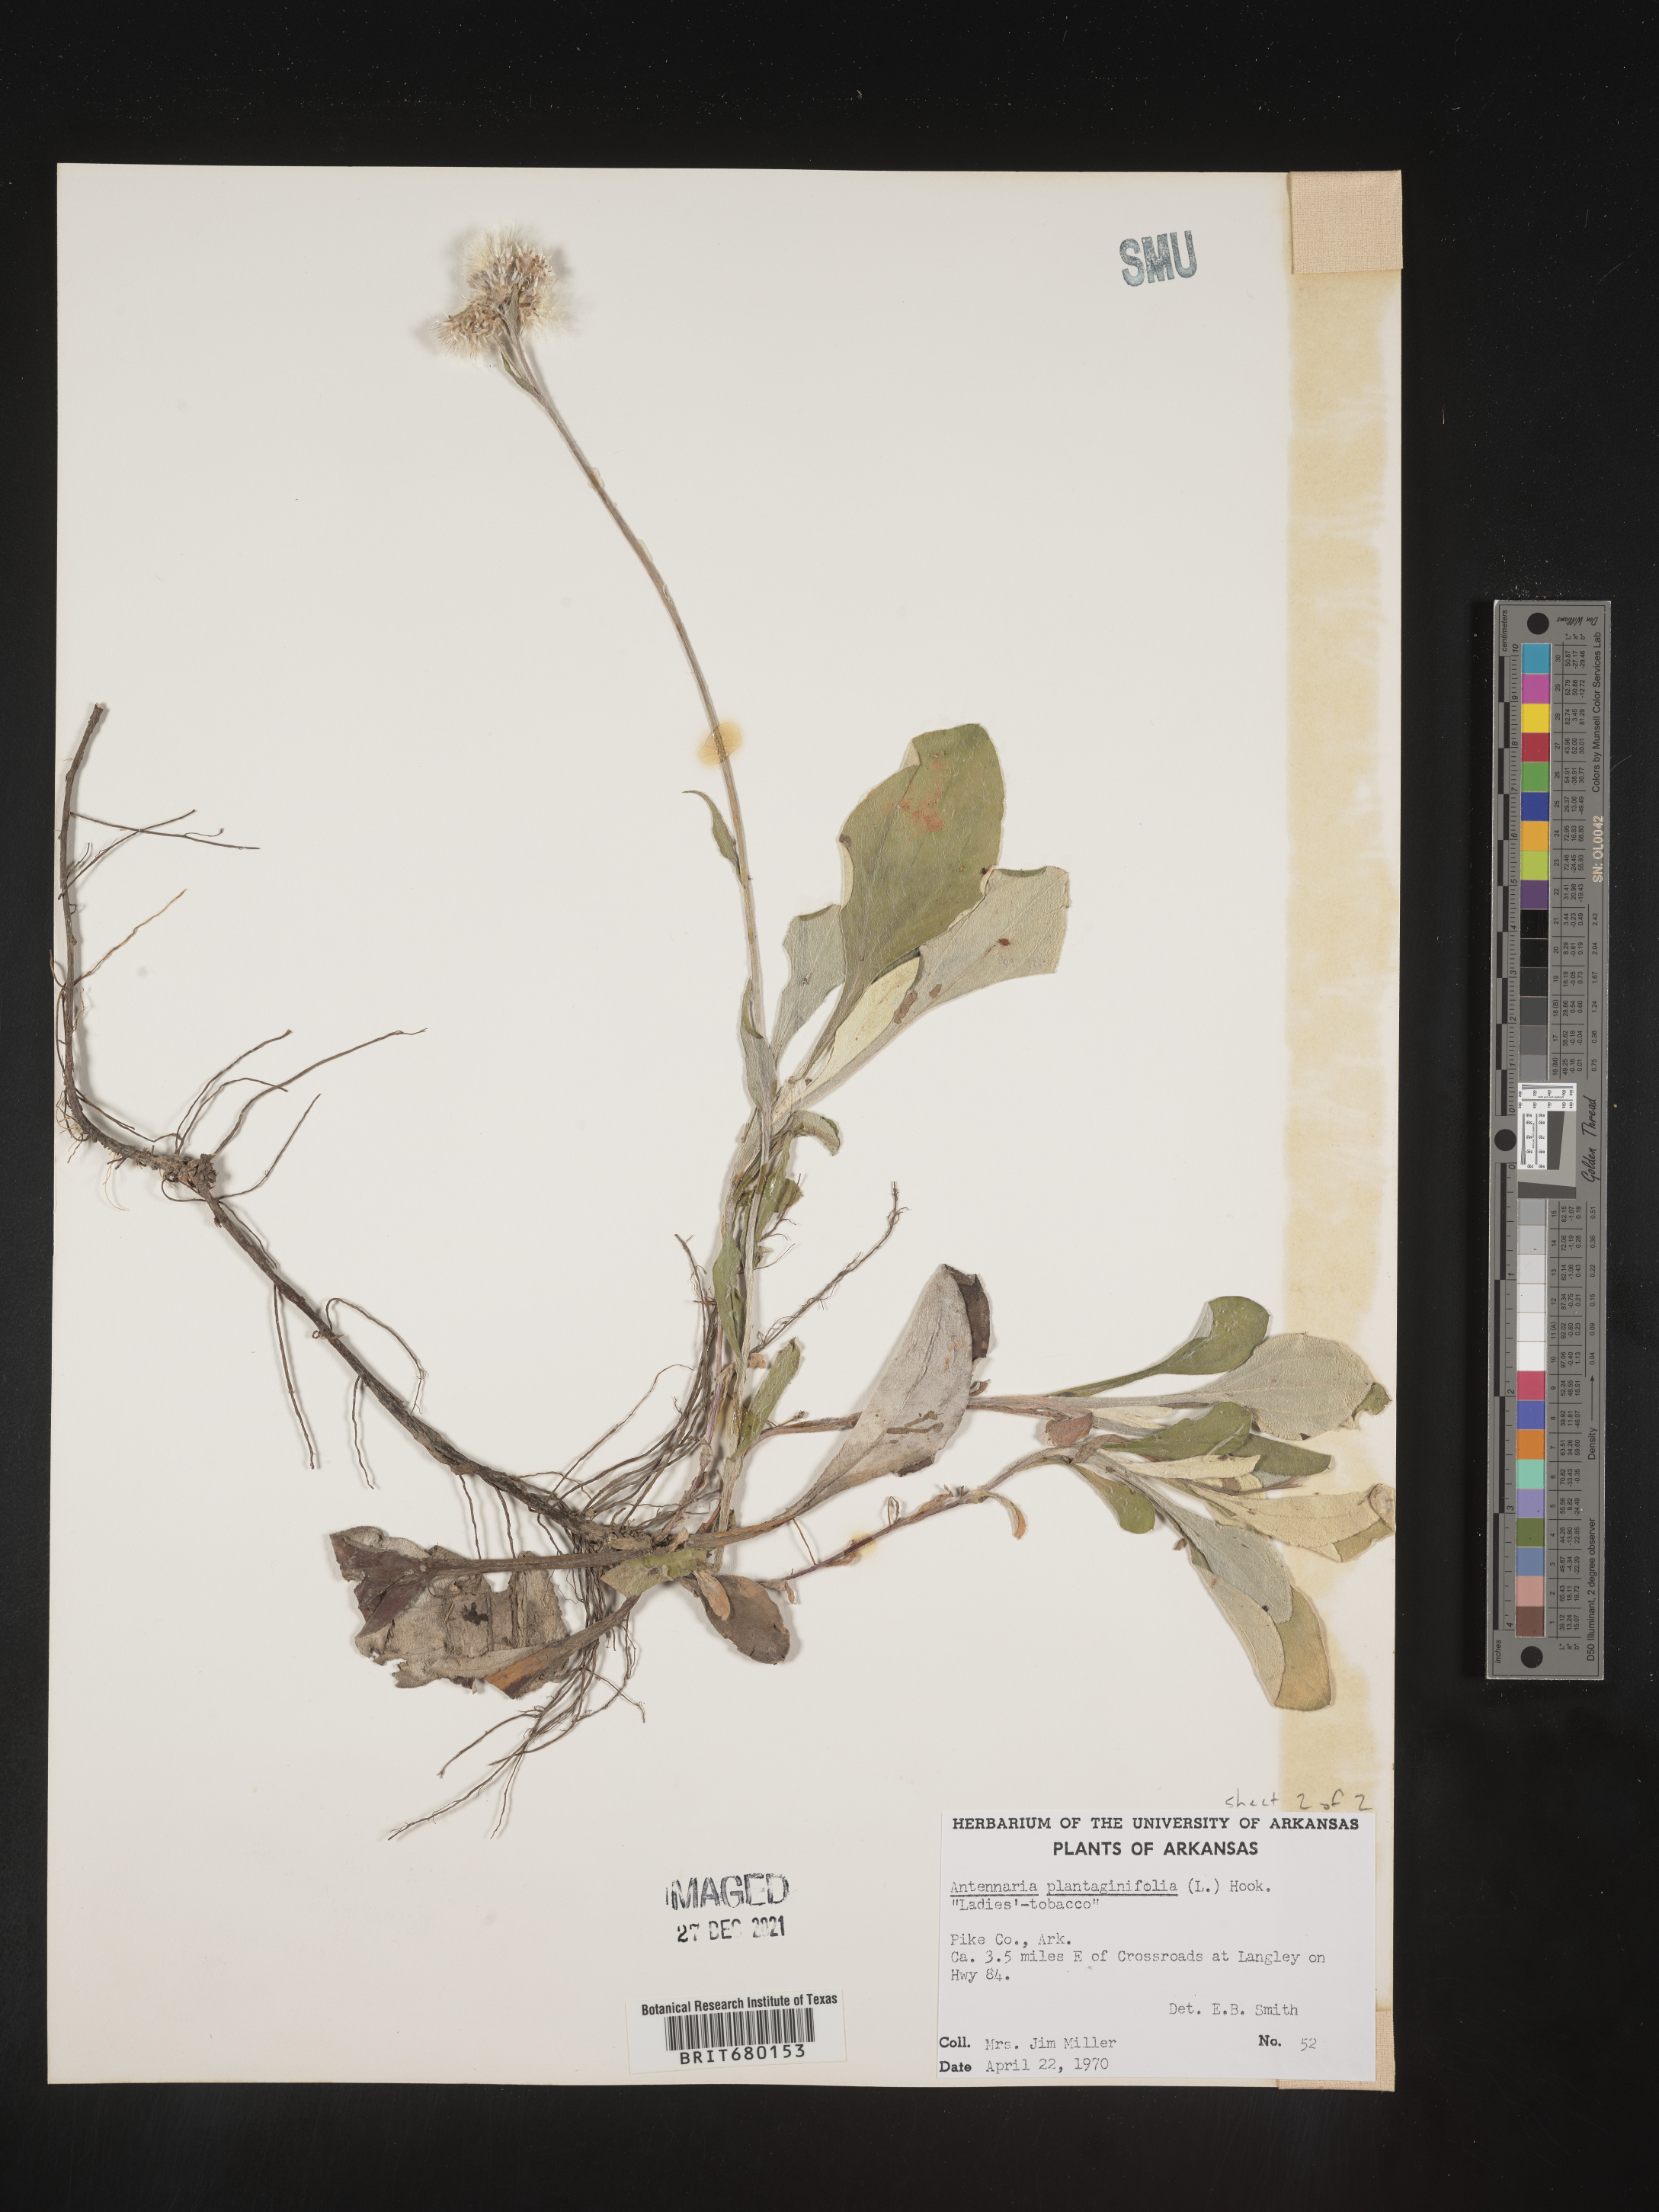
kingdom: Plantae
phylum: Tracheophyta
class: Magnoliopsida
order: Asterales
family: Asteraceae
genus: Antennaria
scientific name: Antennaria plantaginifolia
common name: Plantain-leaved pussytoes
